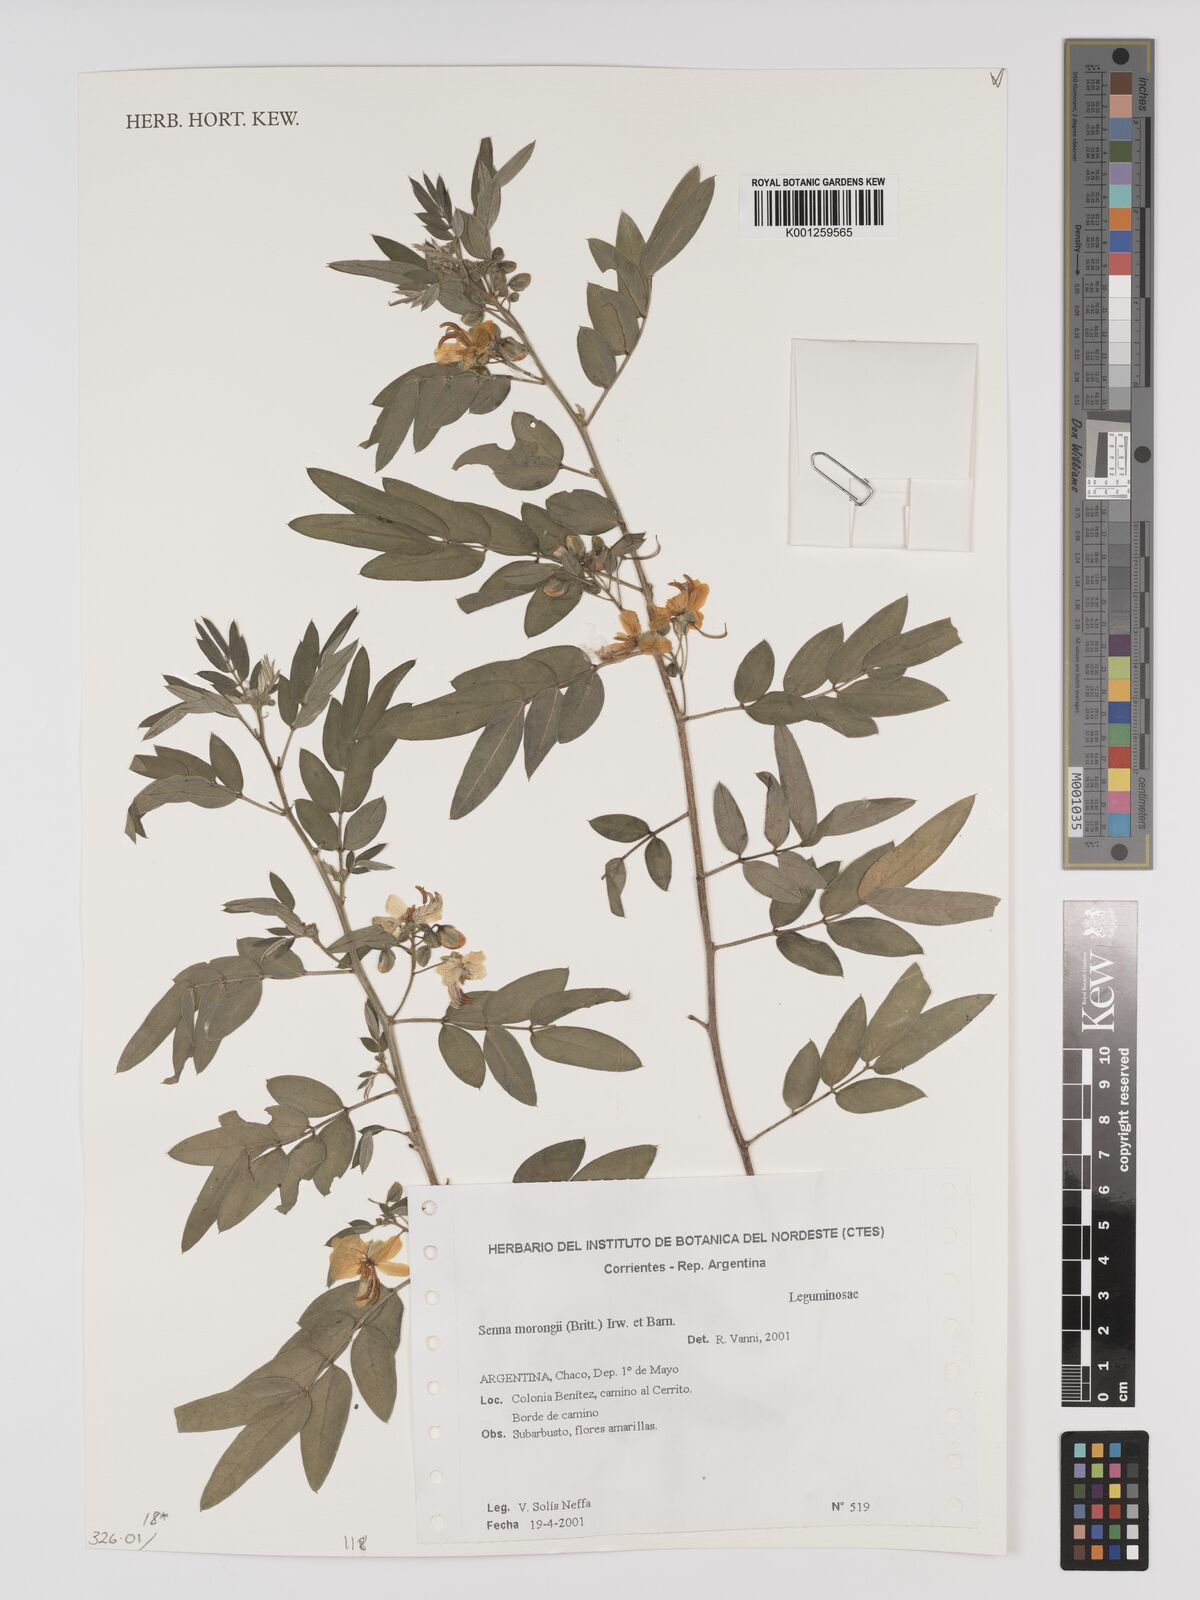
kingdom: Plantae
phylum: Tracheophyta
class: Magnoliopsida
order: Fabales
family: Fabaceae
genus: Senna
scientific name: Senna morongii
